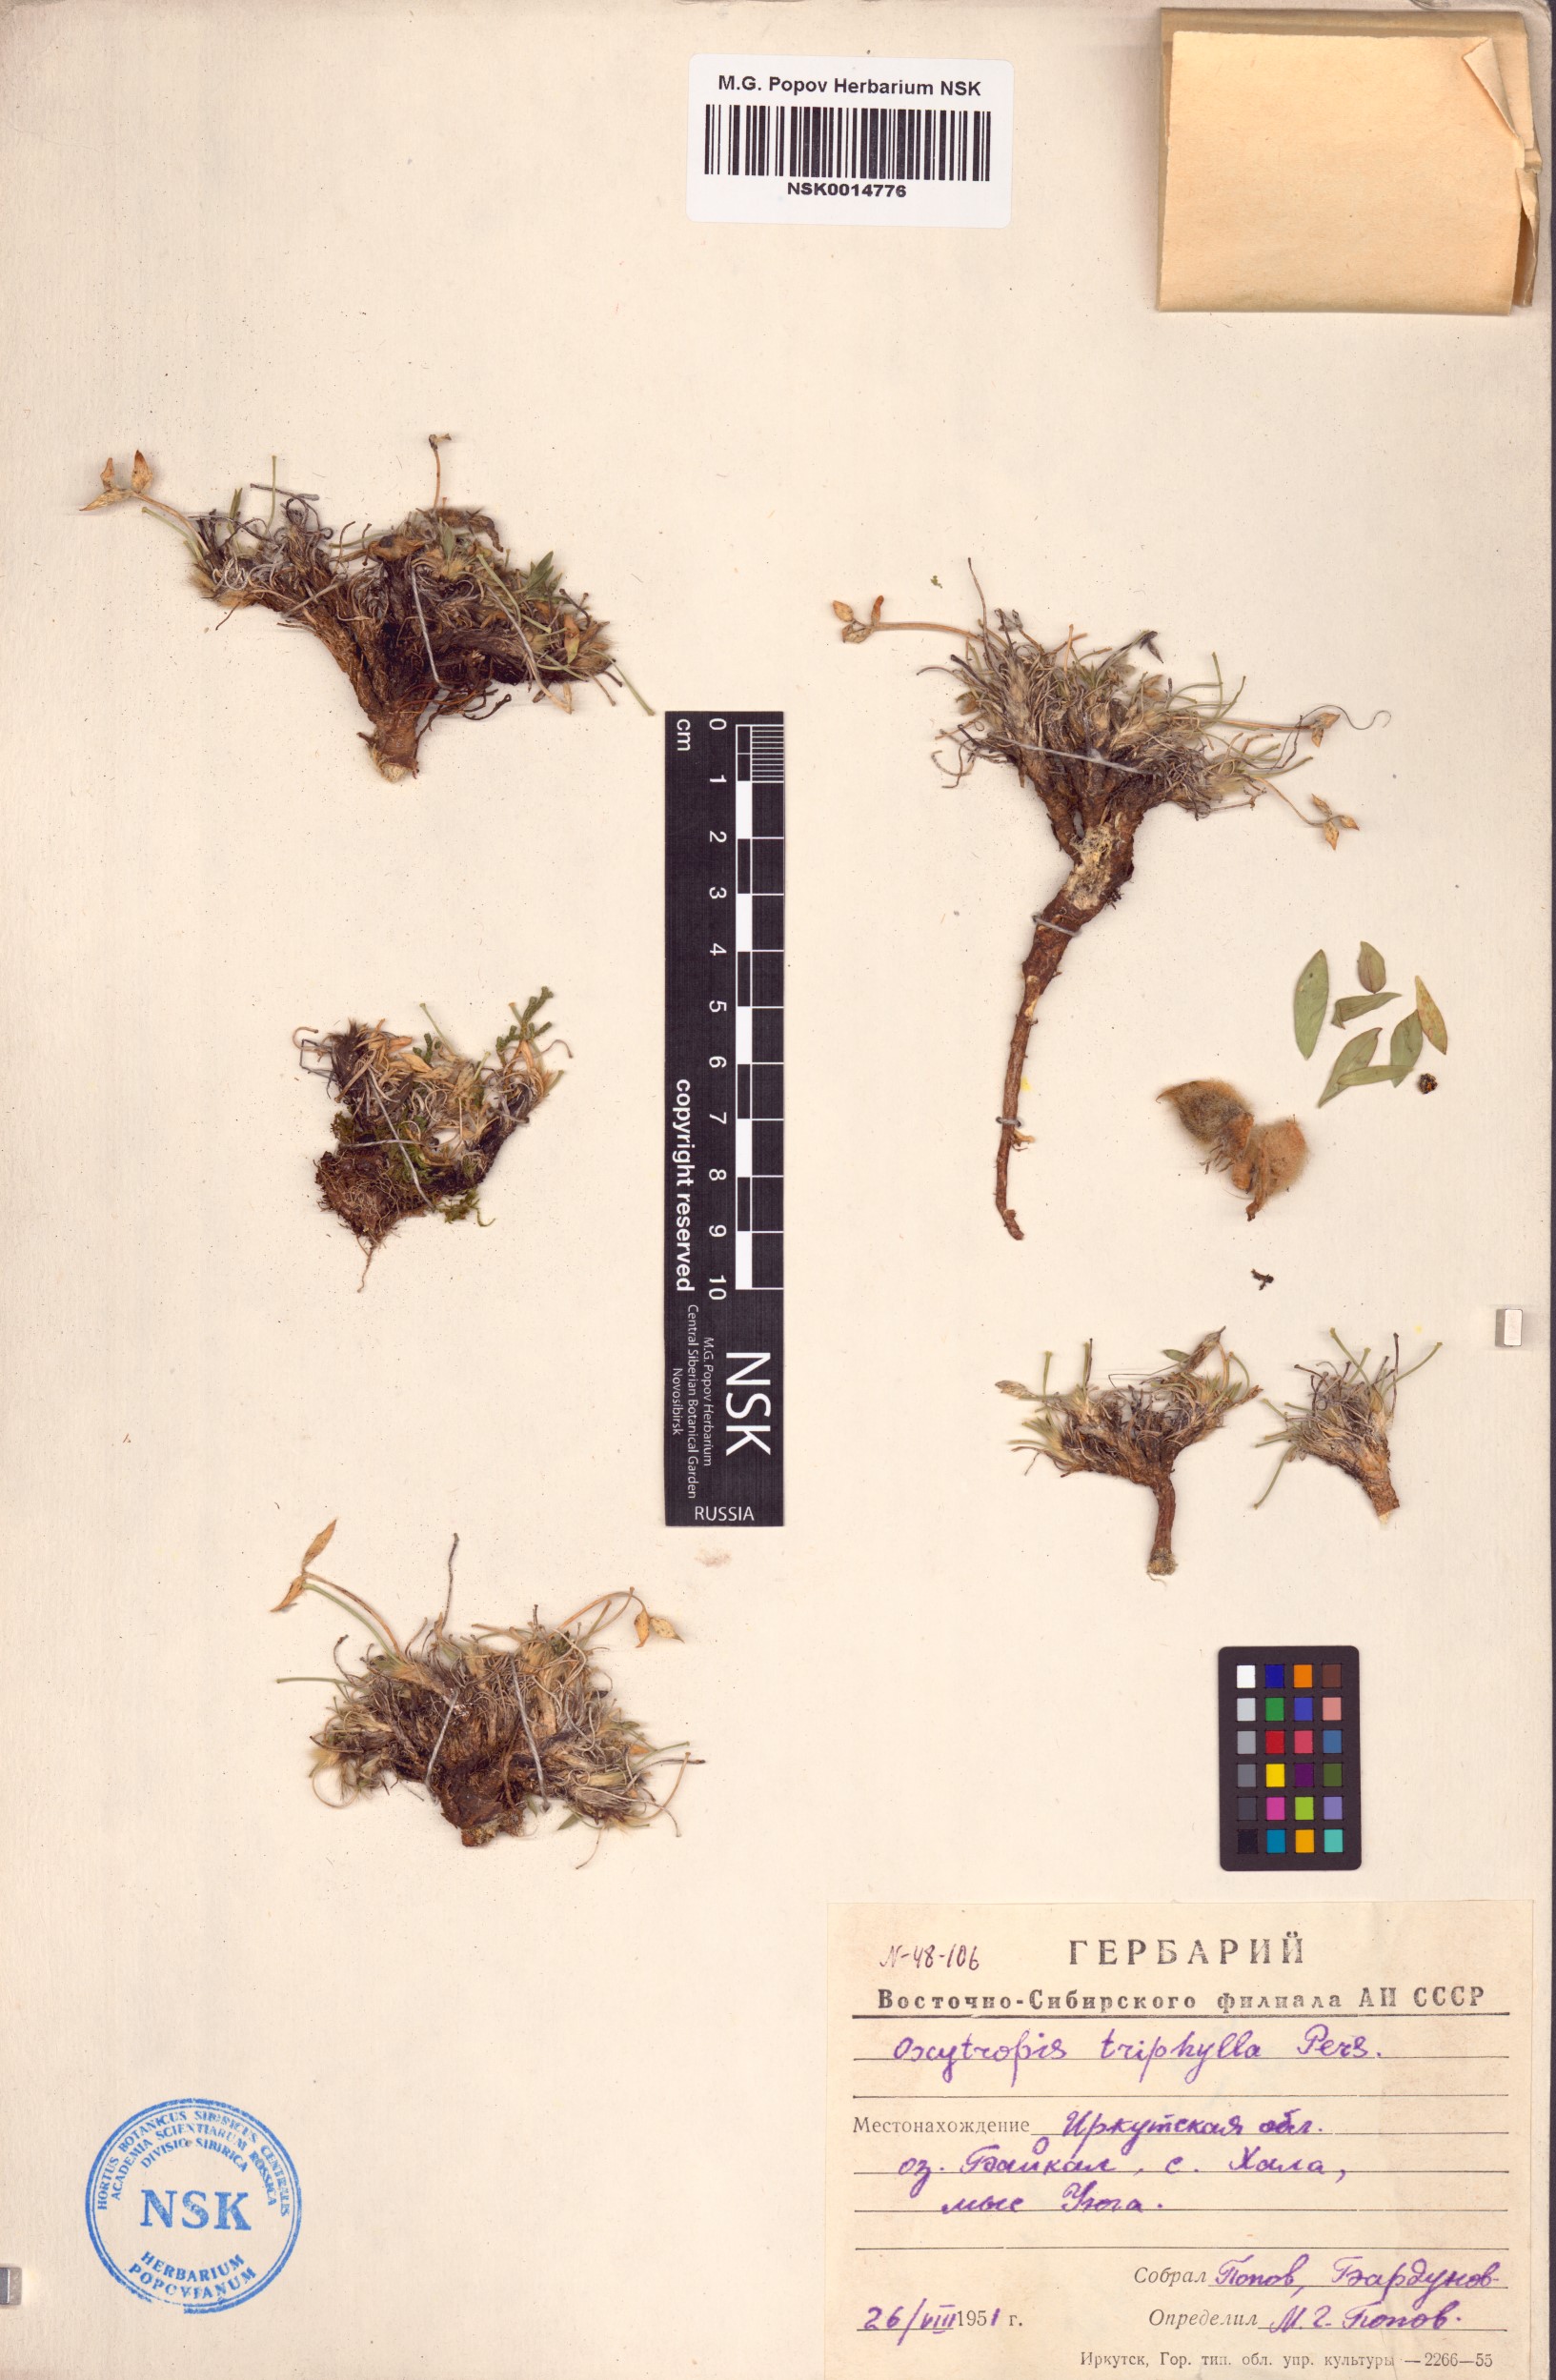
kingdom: Plantae
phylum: Tracheophyta
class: Magnoliopsida
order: Fabales
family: Fabaceae
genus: Oxytropis
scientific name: Oxytropis triphylla
